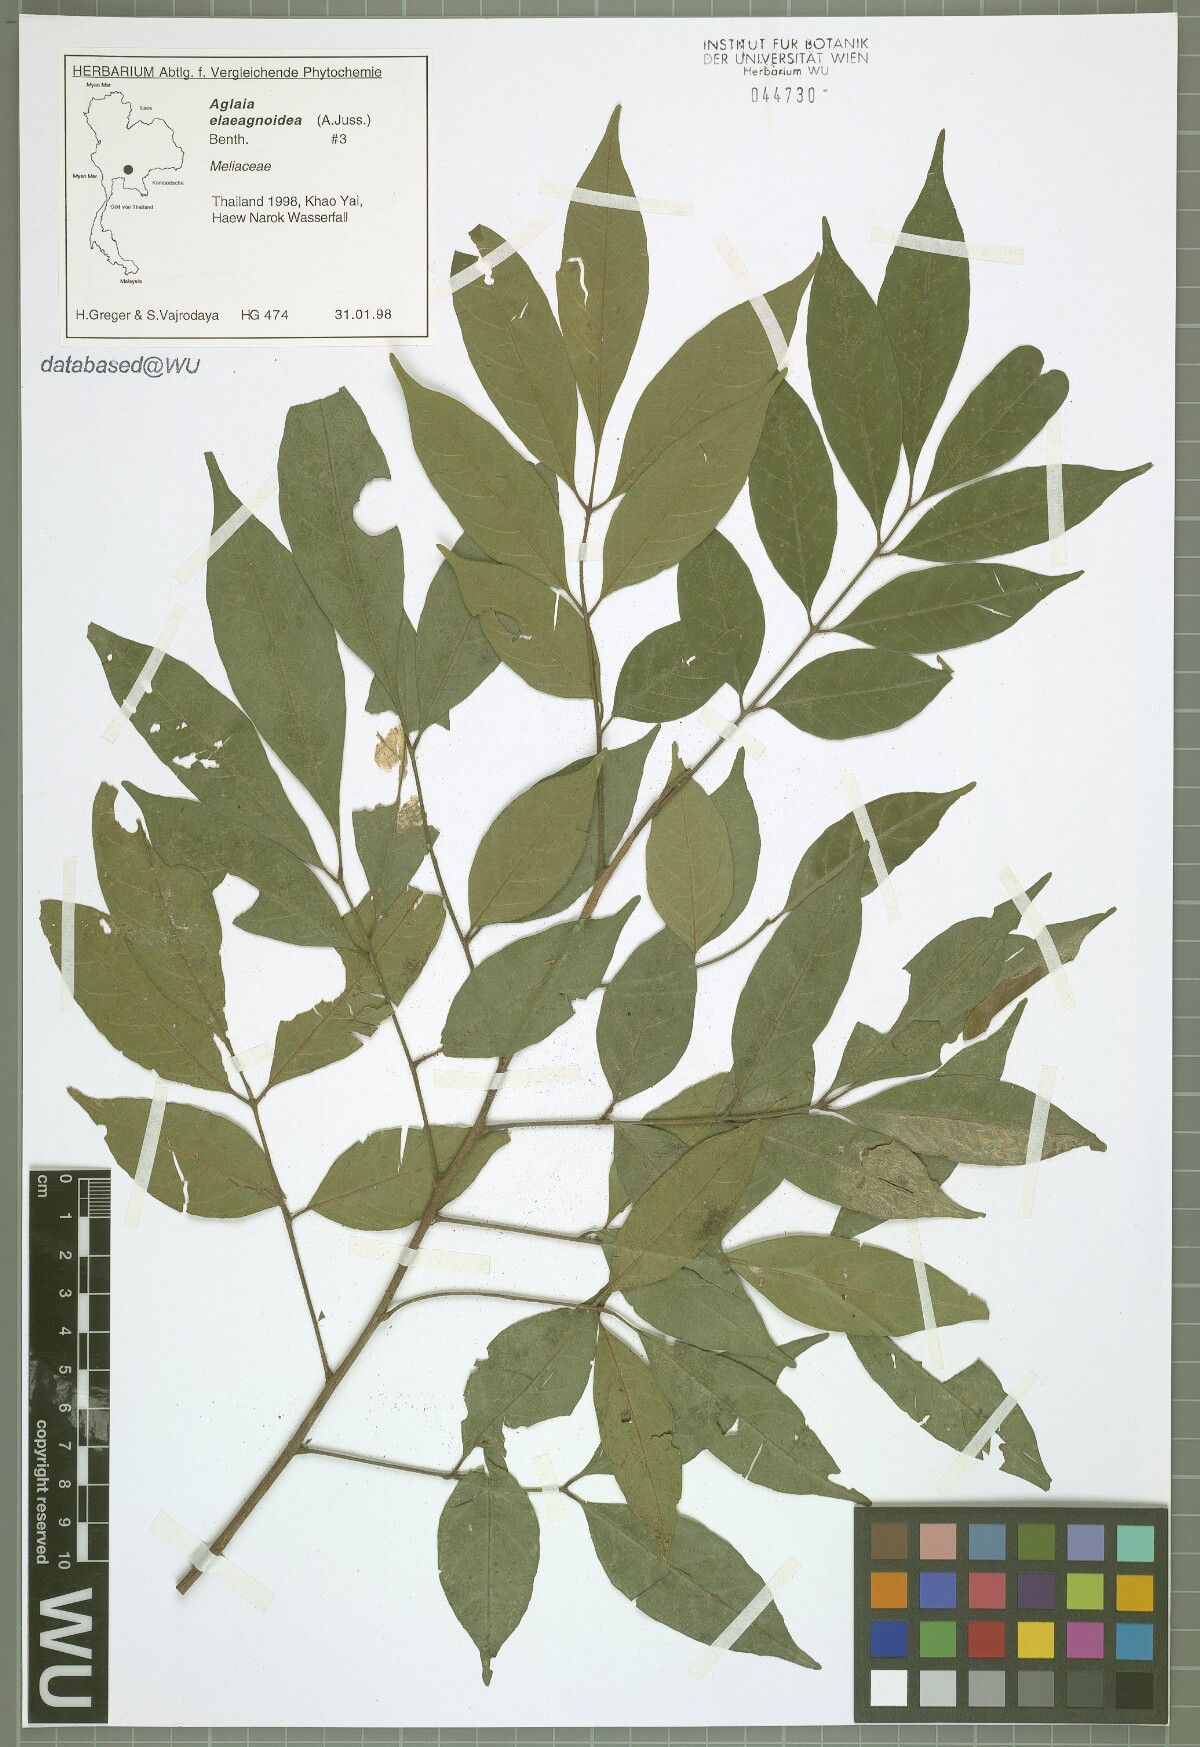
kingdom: Plantae
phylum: Tracheophyta
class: Magnoliopsida
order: Sapindales
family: Meliaceae
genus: Aglaia
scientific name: Aglaia elaeagnoidea
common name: Droopyleaf
